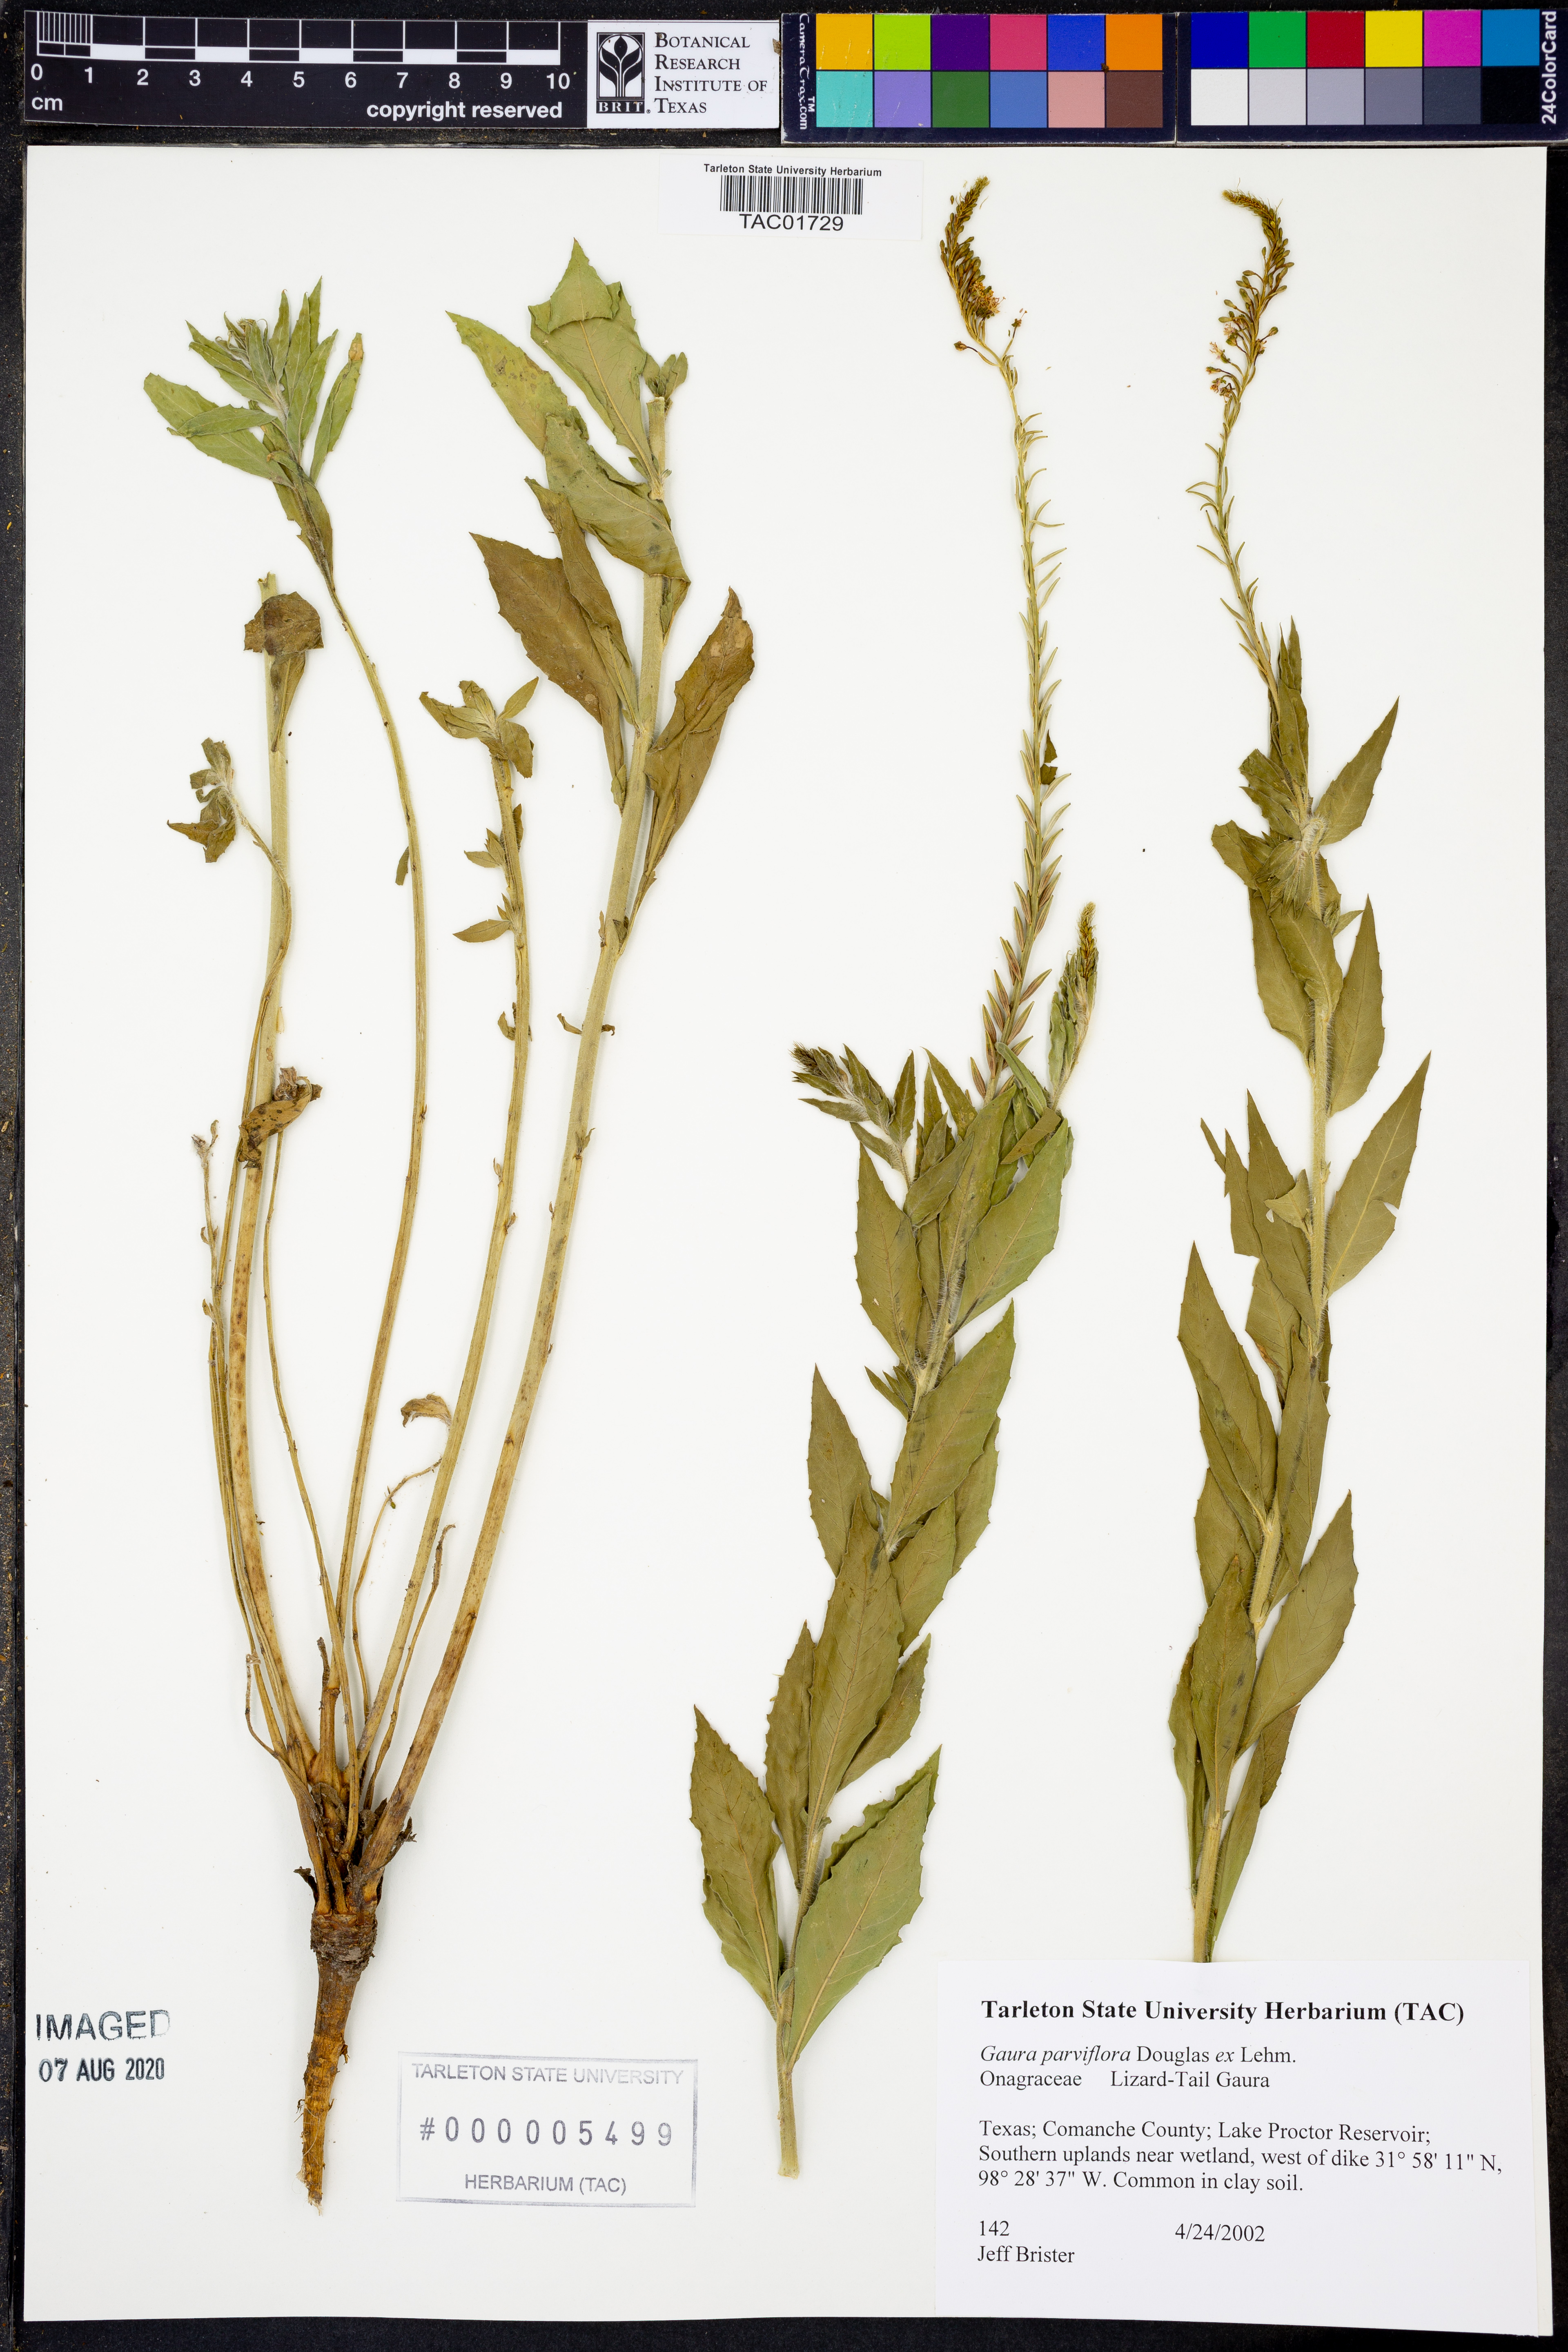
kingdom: Plantae
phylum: Tracheophyta
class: Magnoliopsida
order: Myrtales
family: Onagraceae
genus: Oenothera
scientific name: Oenothera curtiflora
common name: Velvetweed
